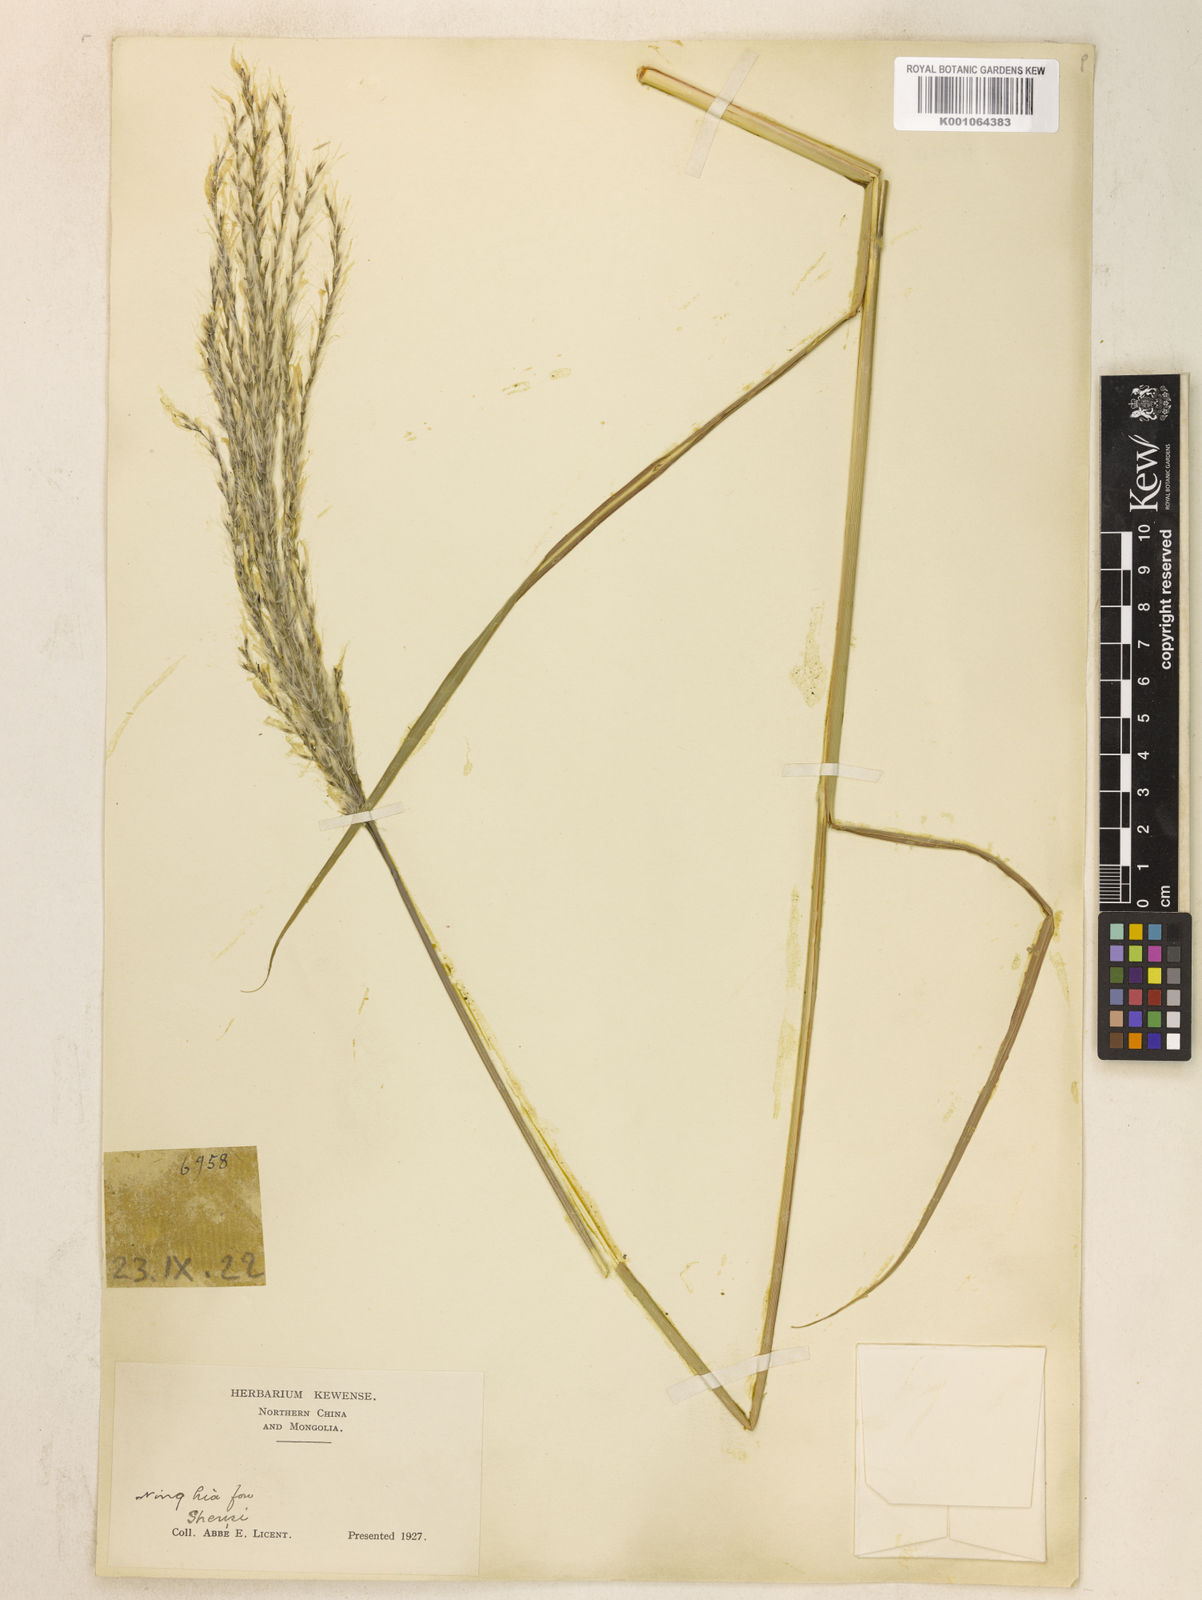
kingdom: Plantae
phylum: Tracheophyta
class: Liliopsida
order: Poales
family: Poaceae
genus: Miscanthus
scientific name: Miscanthus
